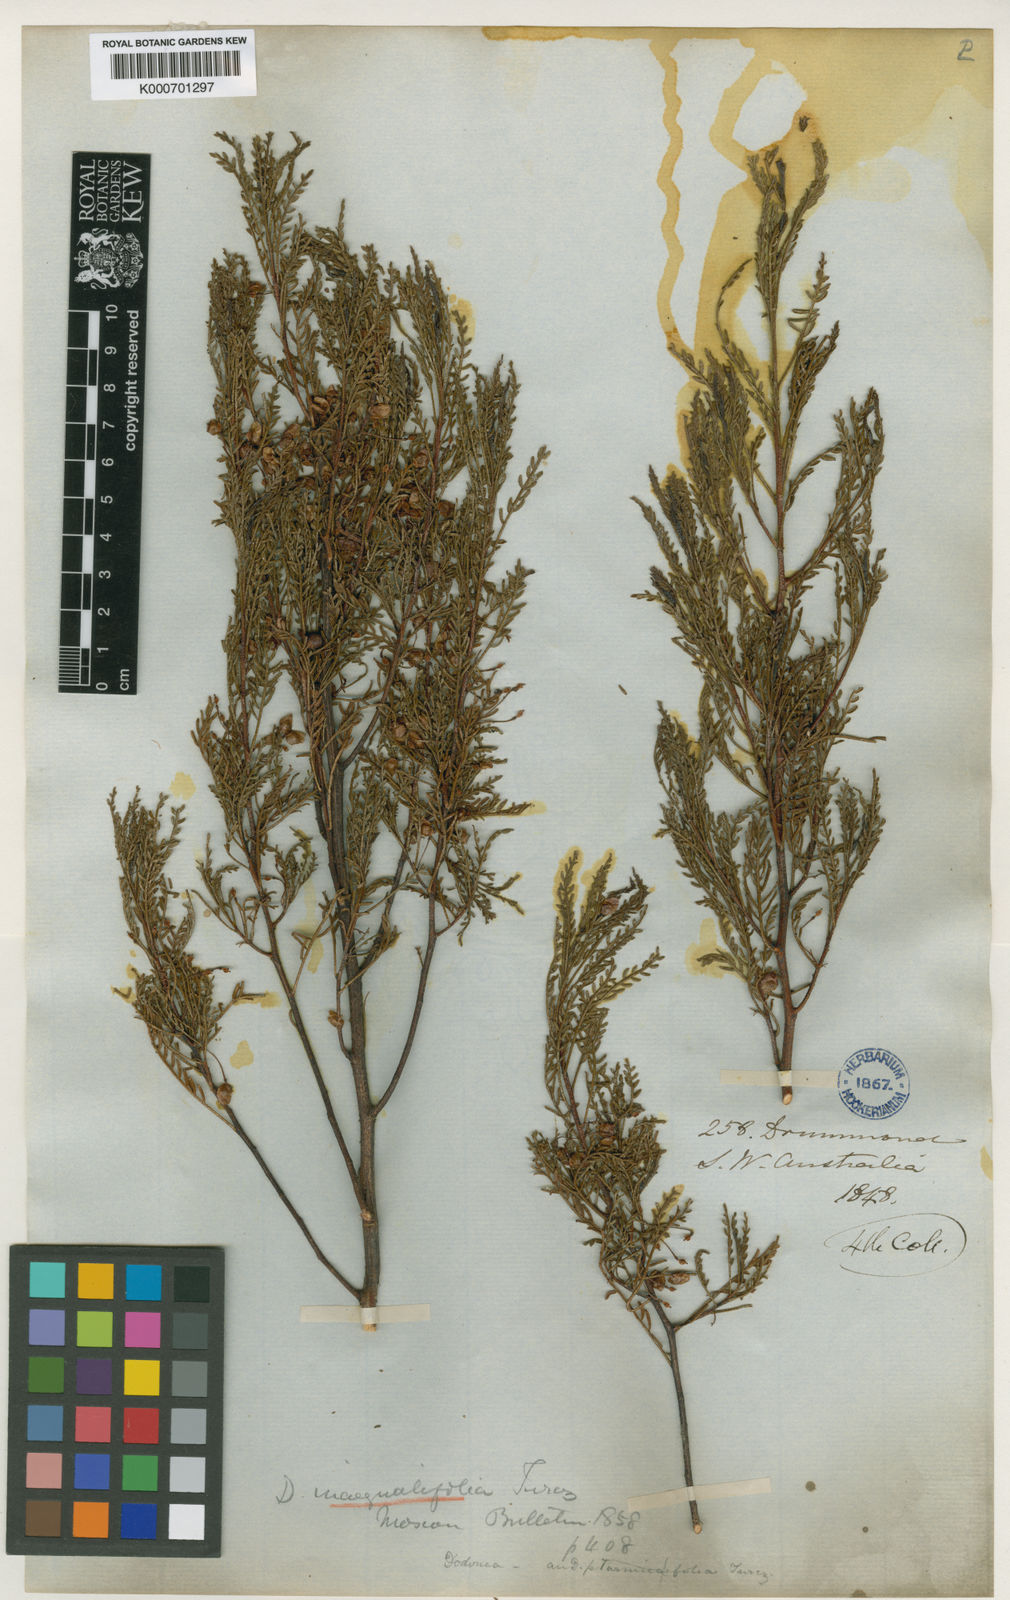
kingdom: Plantae
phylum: Tracheophyta
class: Magnoliopsida
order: Sapindales
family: Sapindaceae
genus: Dodonaea
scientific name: Dodonaea inaequifolia
